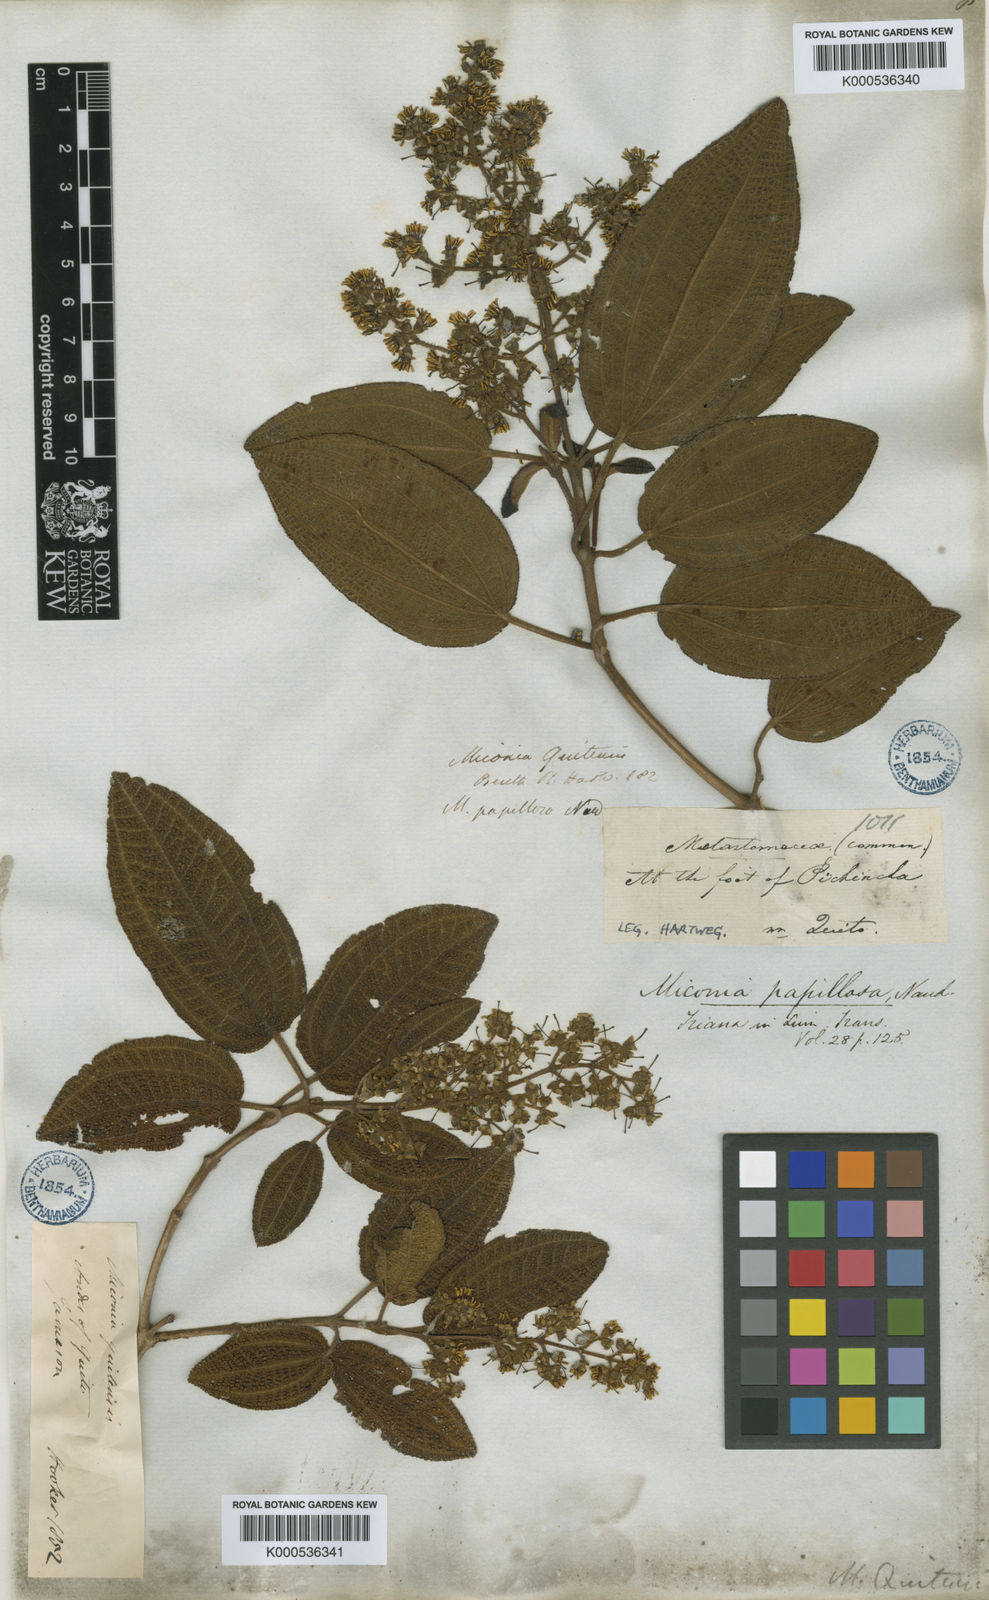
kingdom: Plantae
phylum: Tracheophyta
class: Magnoliopsida
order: Myrtales
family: Melastomataceae
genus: Miconia
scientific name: Miconia papillosa
